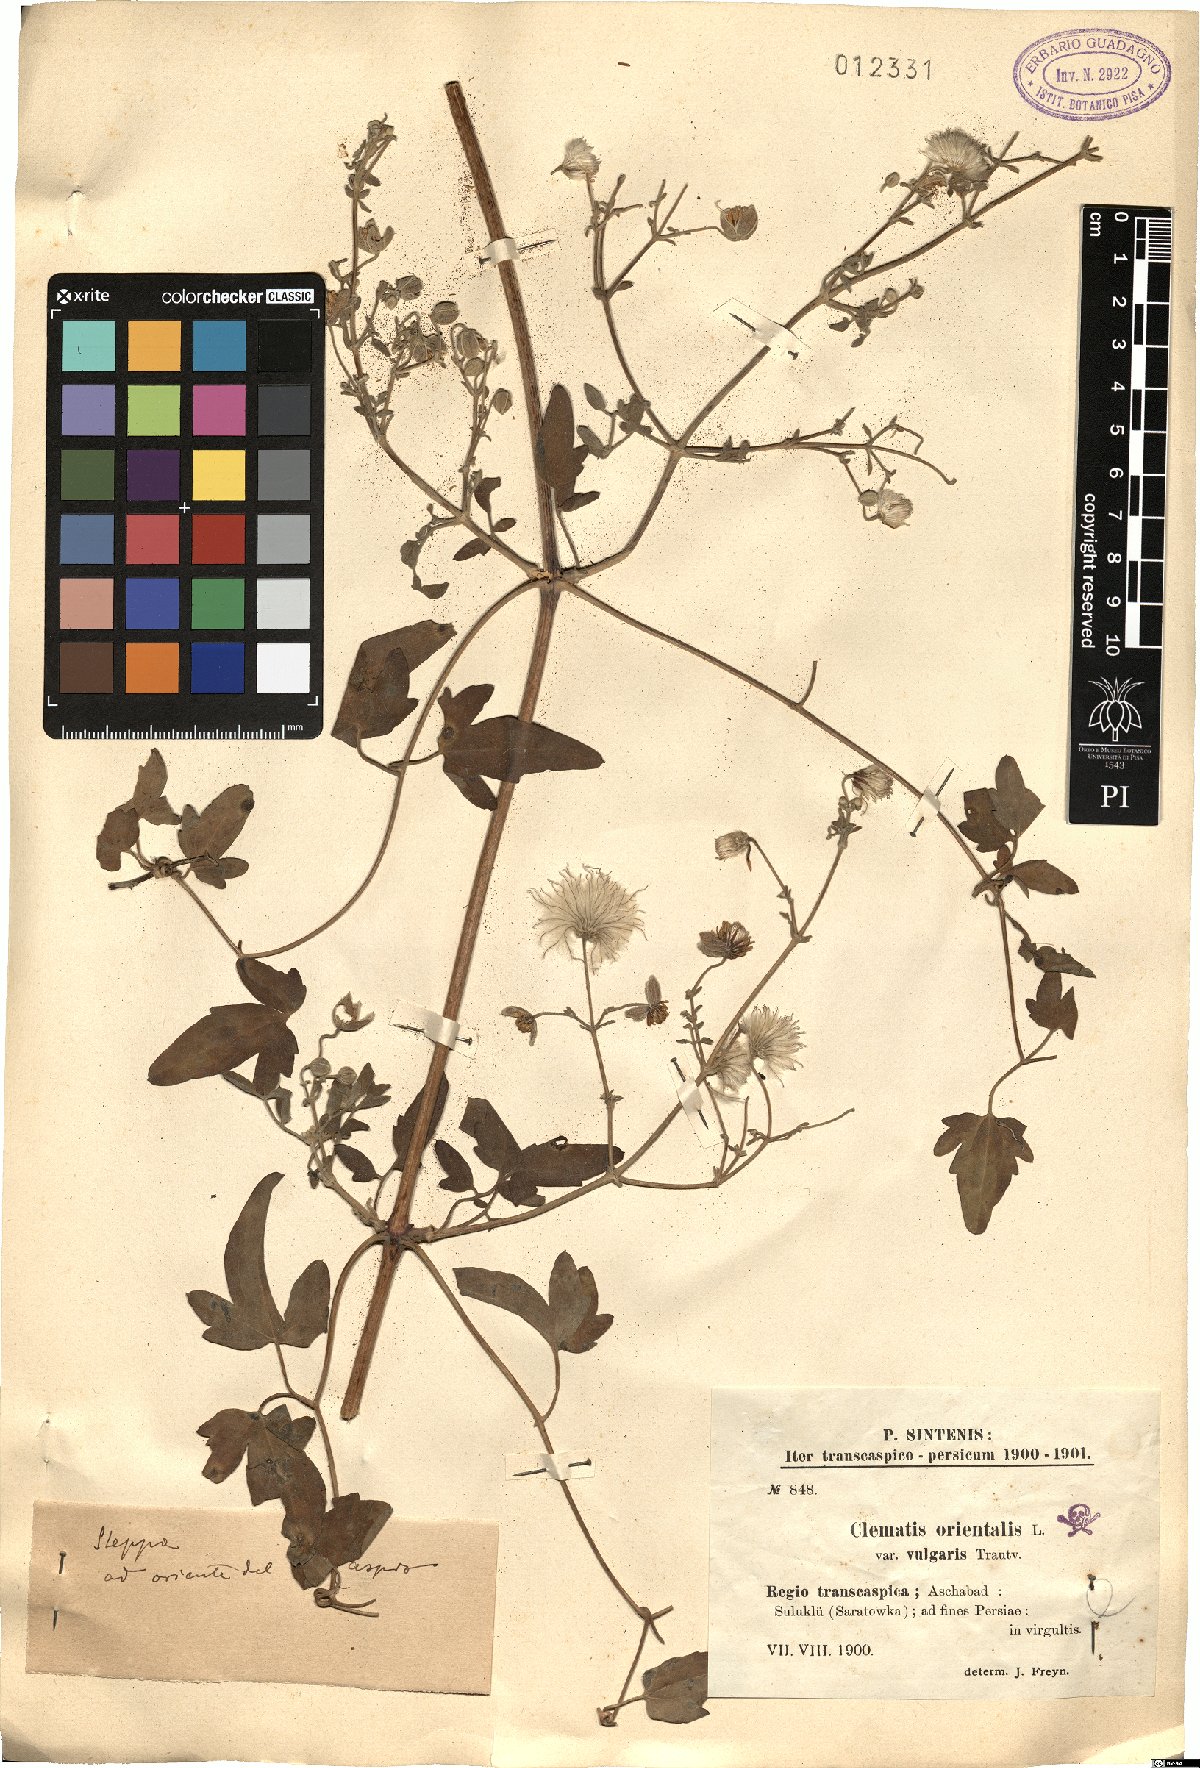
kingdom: Plantae
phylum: Tracheophyta
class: Magnoliopsida
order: Ranunculales
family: Ranunculaceae
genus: Clematis
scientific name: Clematis orientalis
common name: Oriental virgin's-bower
